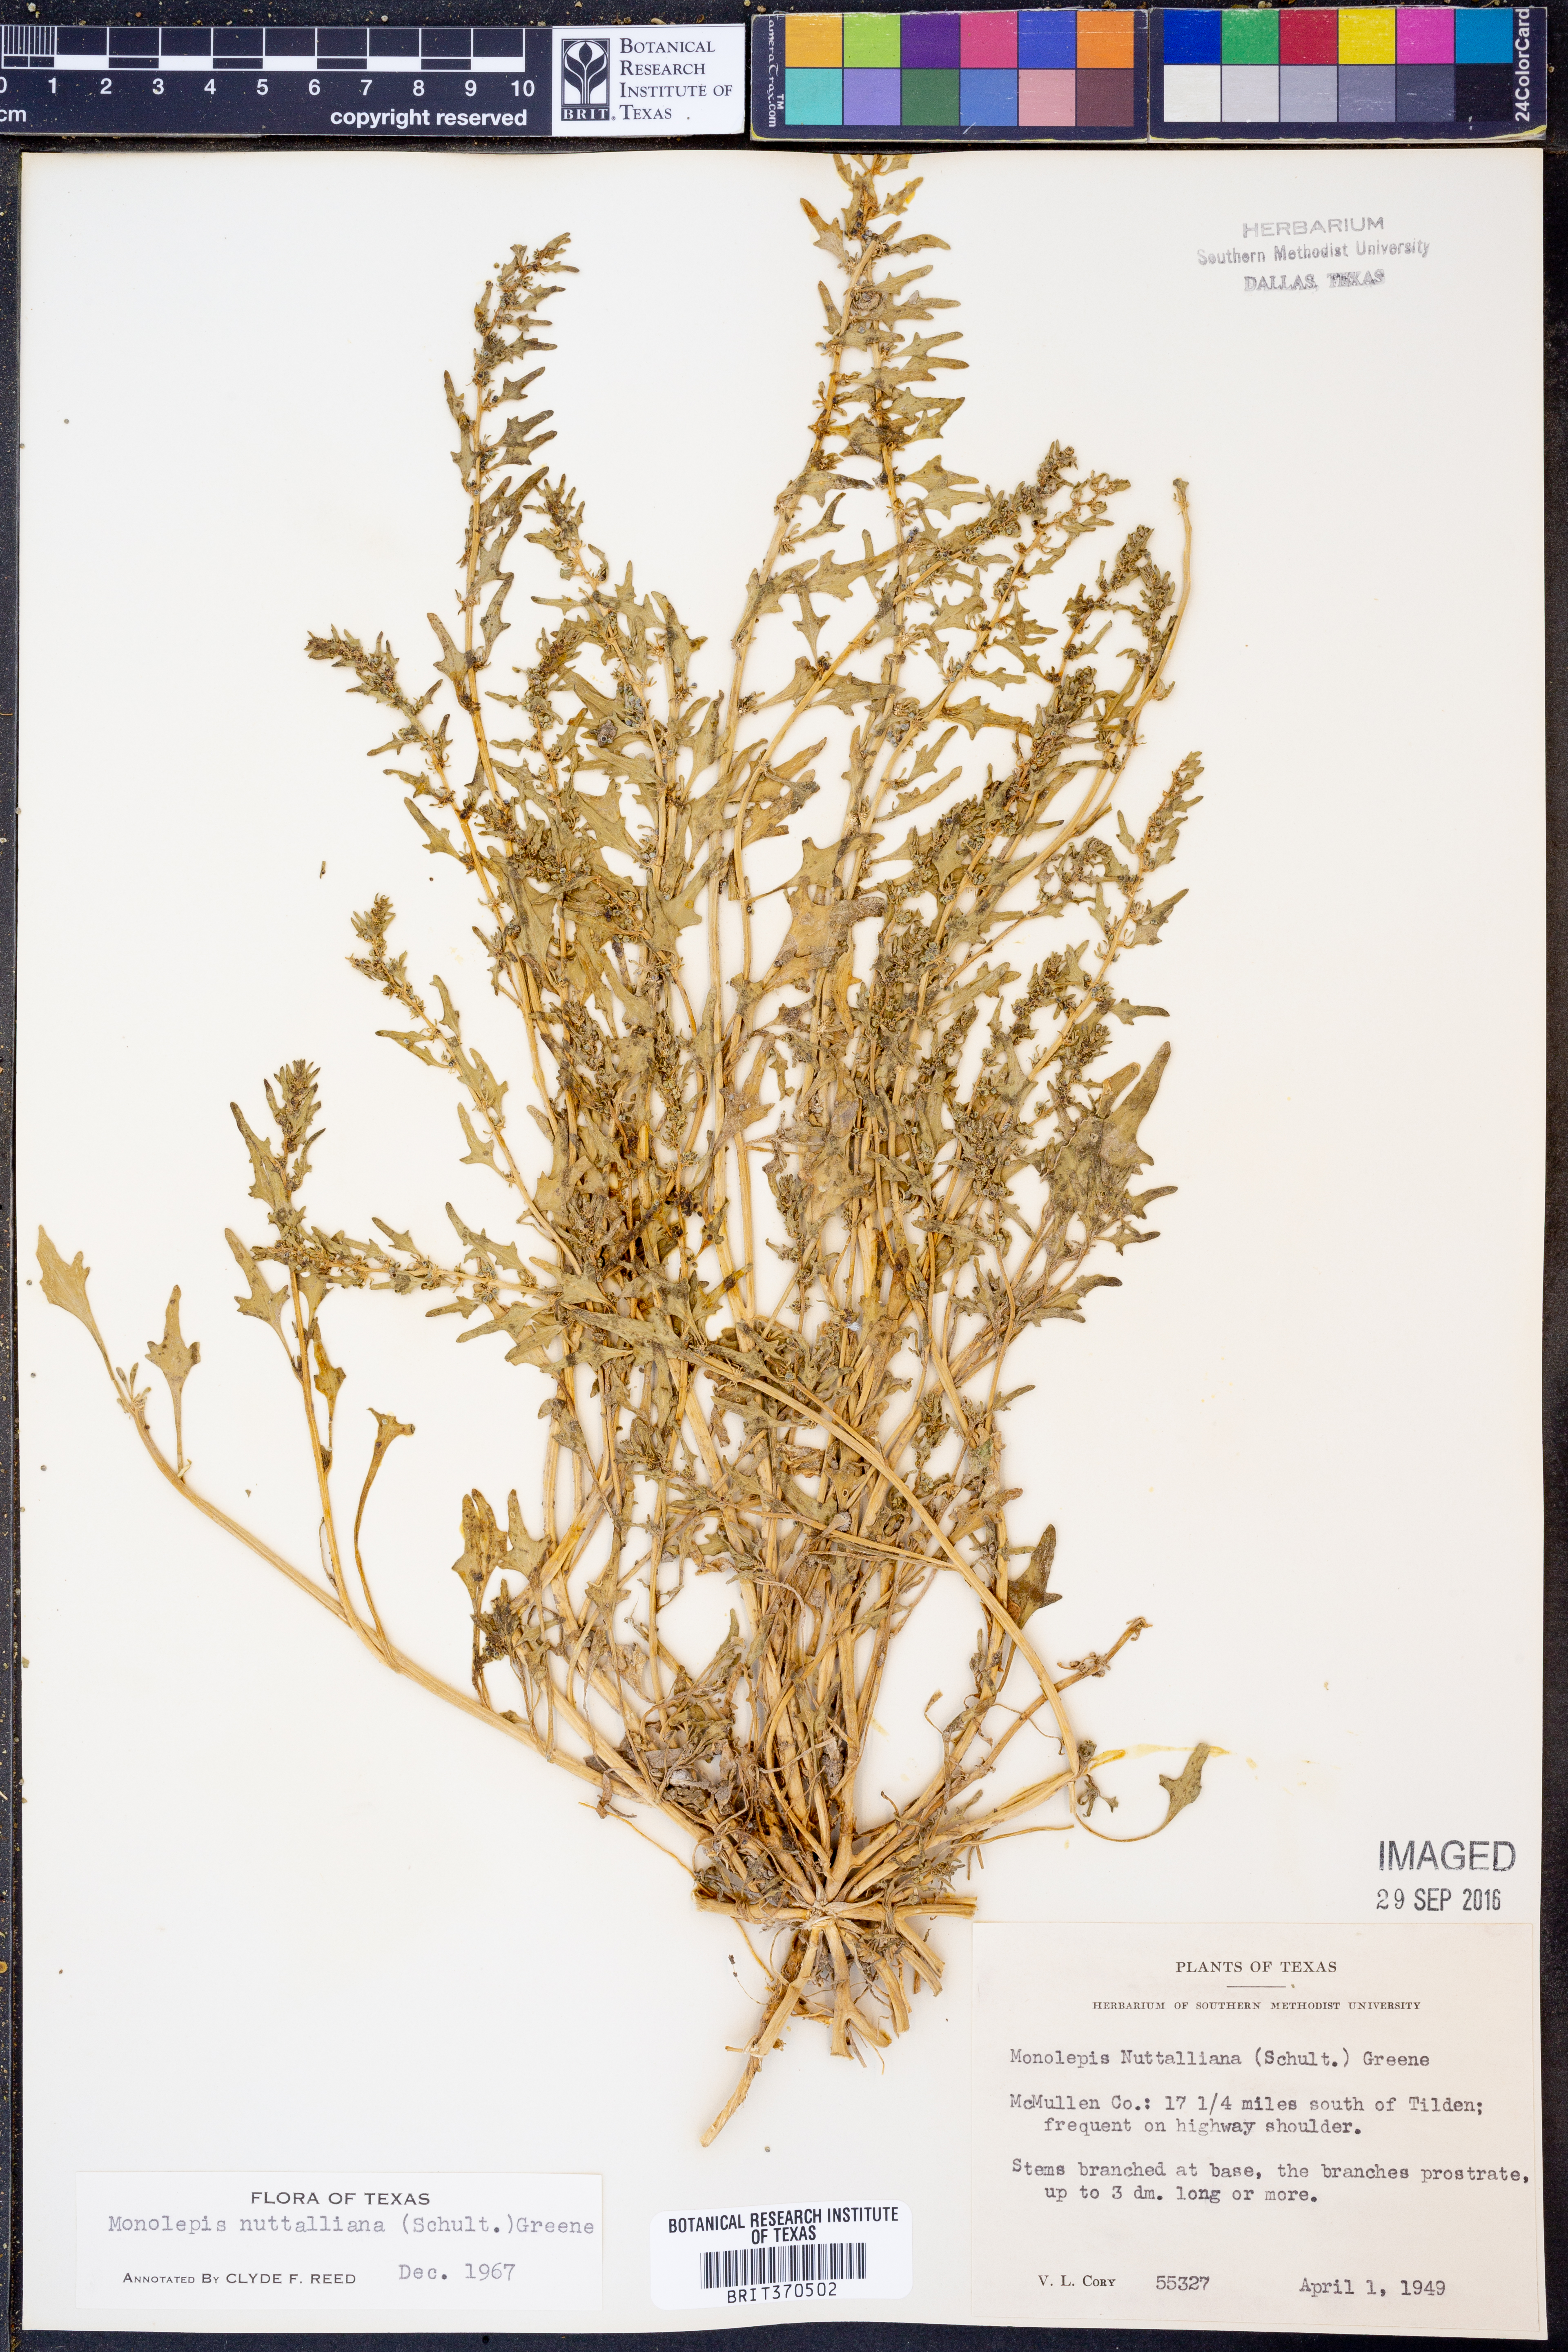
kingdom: Plantae
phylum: Tracheophyta
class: Magnoliopsida
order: Caryophyllales
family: Amaranthaceae
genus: Blitum
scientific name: Blitum nuttallianum
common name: Poverty-weed
